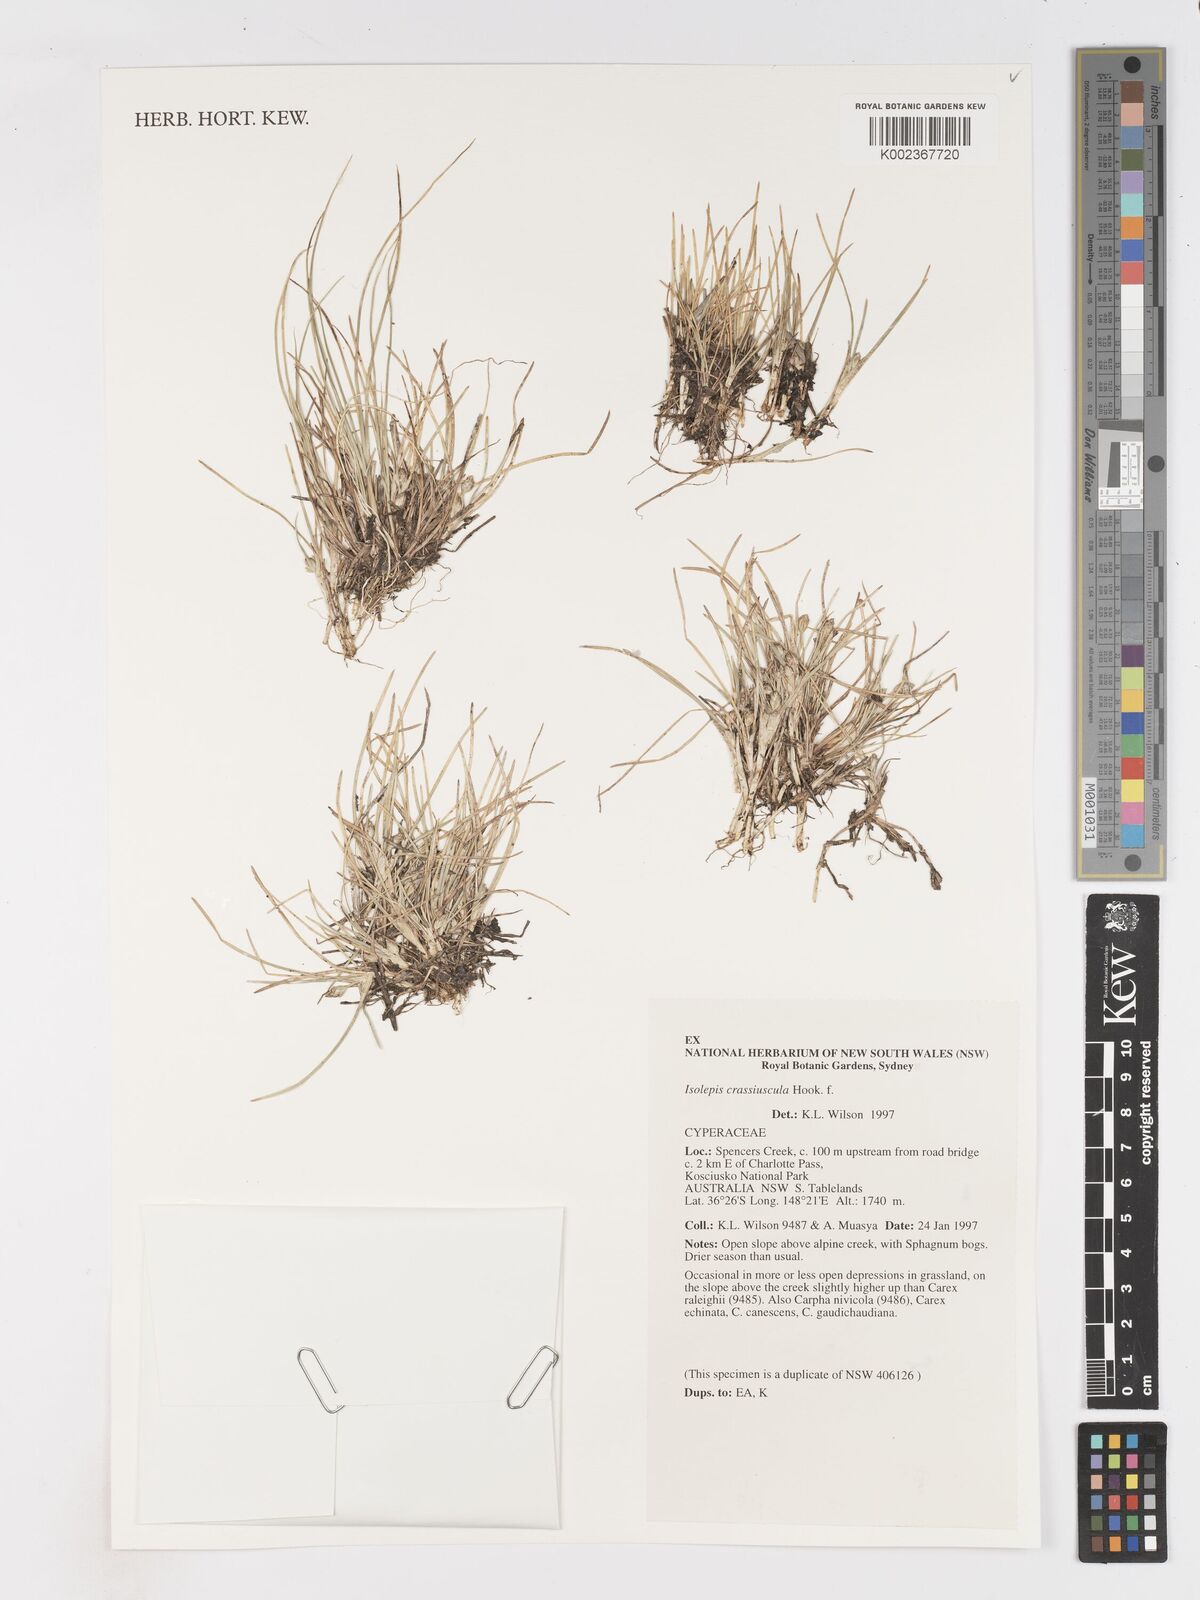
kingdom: Plantae
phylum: Tracheophyta
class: Liliopsida
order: Poales
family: Cyperaceae
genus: Isolepis
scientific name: Isolepis crassiuscula
